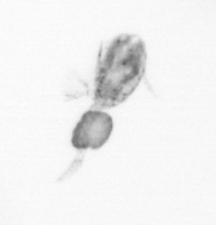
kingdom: Animalia
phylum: Arthropoda
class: Copepoda
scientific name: Copepoda
